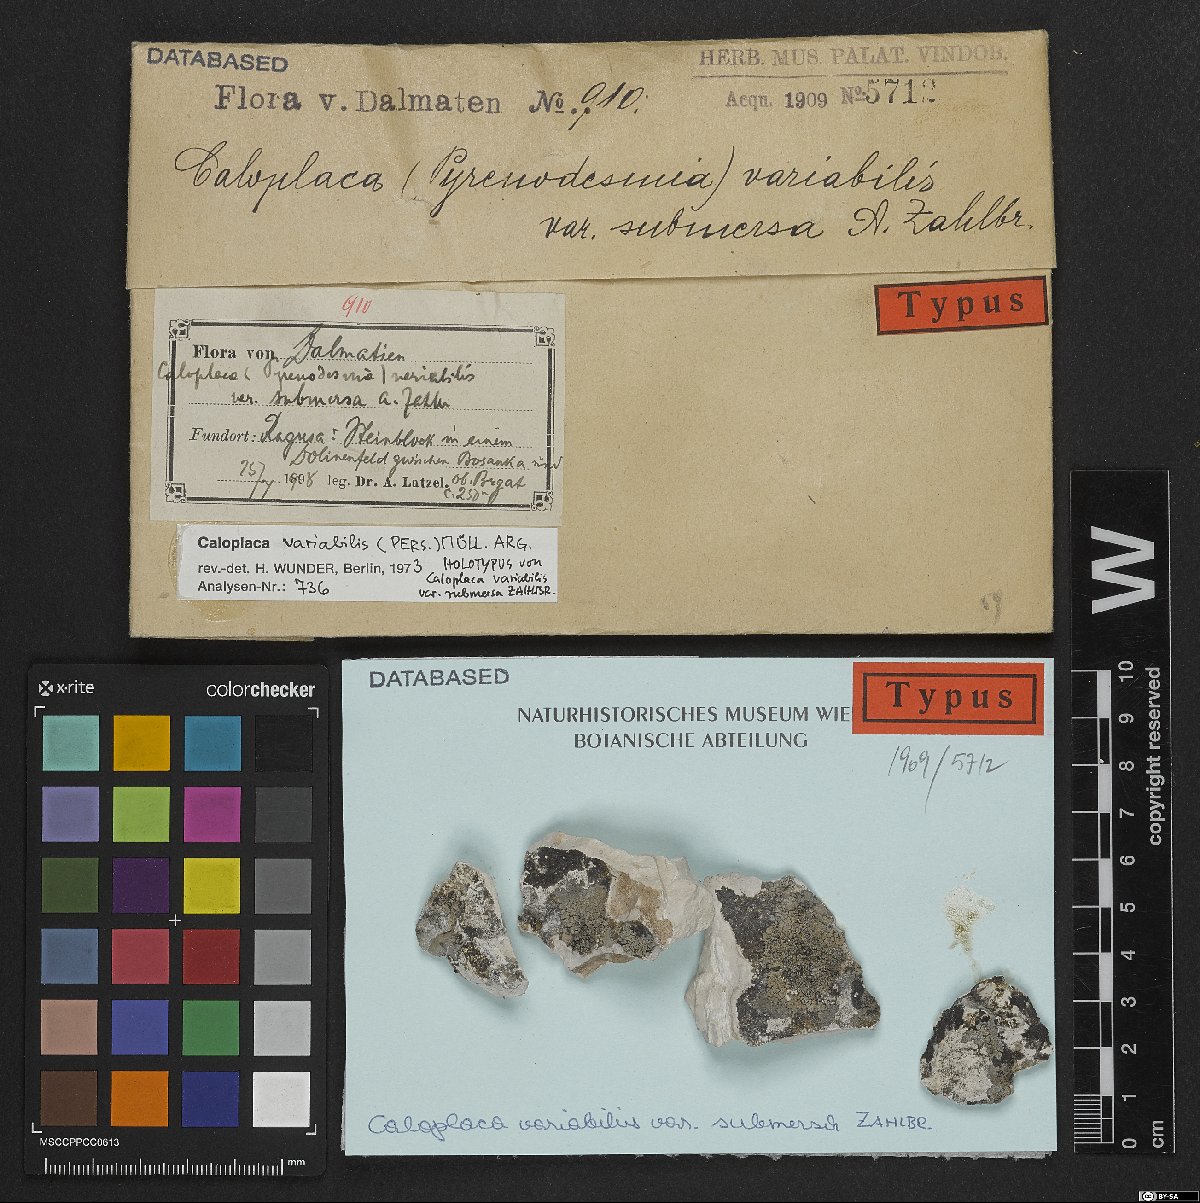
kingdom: Fungi
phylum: Ascomycota
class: Lecanoromycetes
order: Teloschistales
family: Teloschistaceae
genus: Pyrenodesmia
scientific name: Pyrenodesmia variabilis
